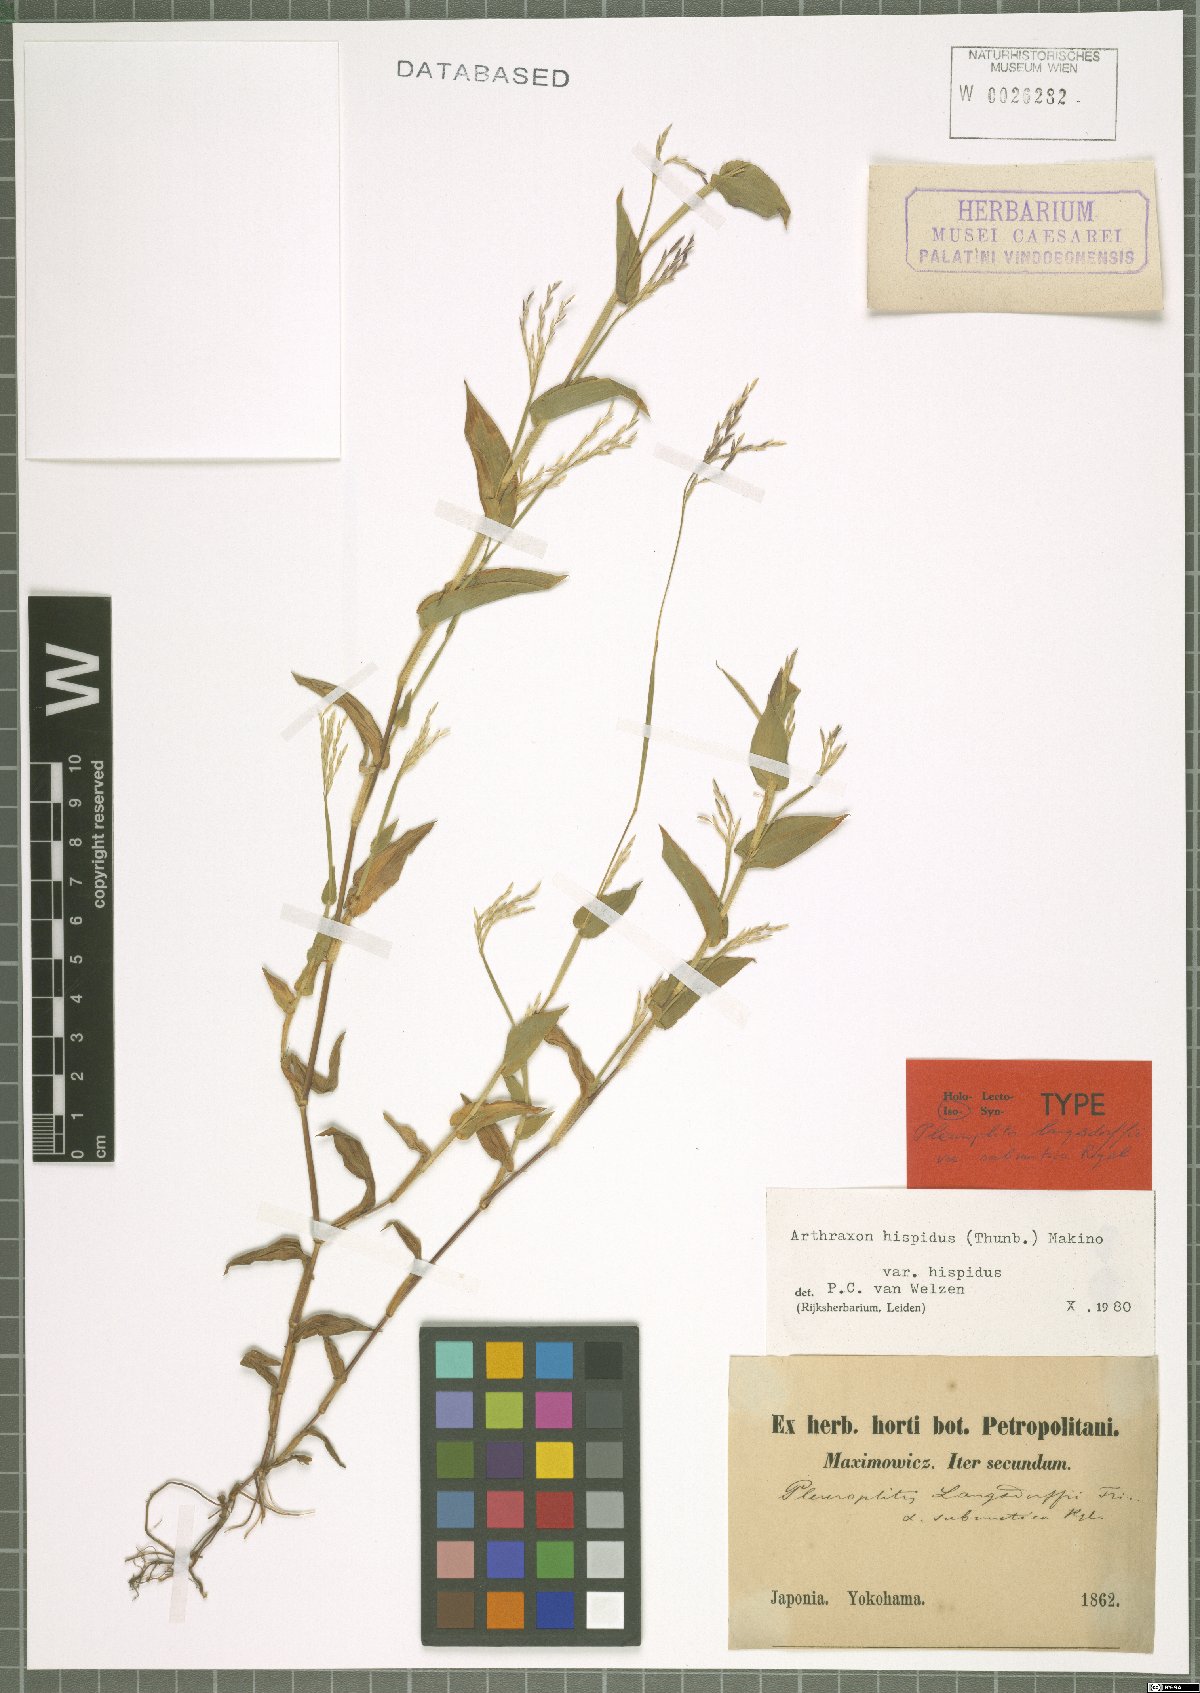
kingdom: Plantae
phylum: Tracheophyta
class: Liliopsida
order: Poales
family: Poaceae
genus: Arthraxon
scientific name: Arthraxon hispidus
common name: Small carpgrass
